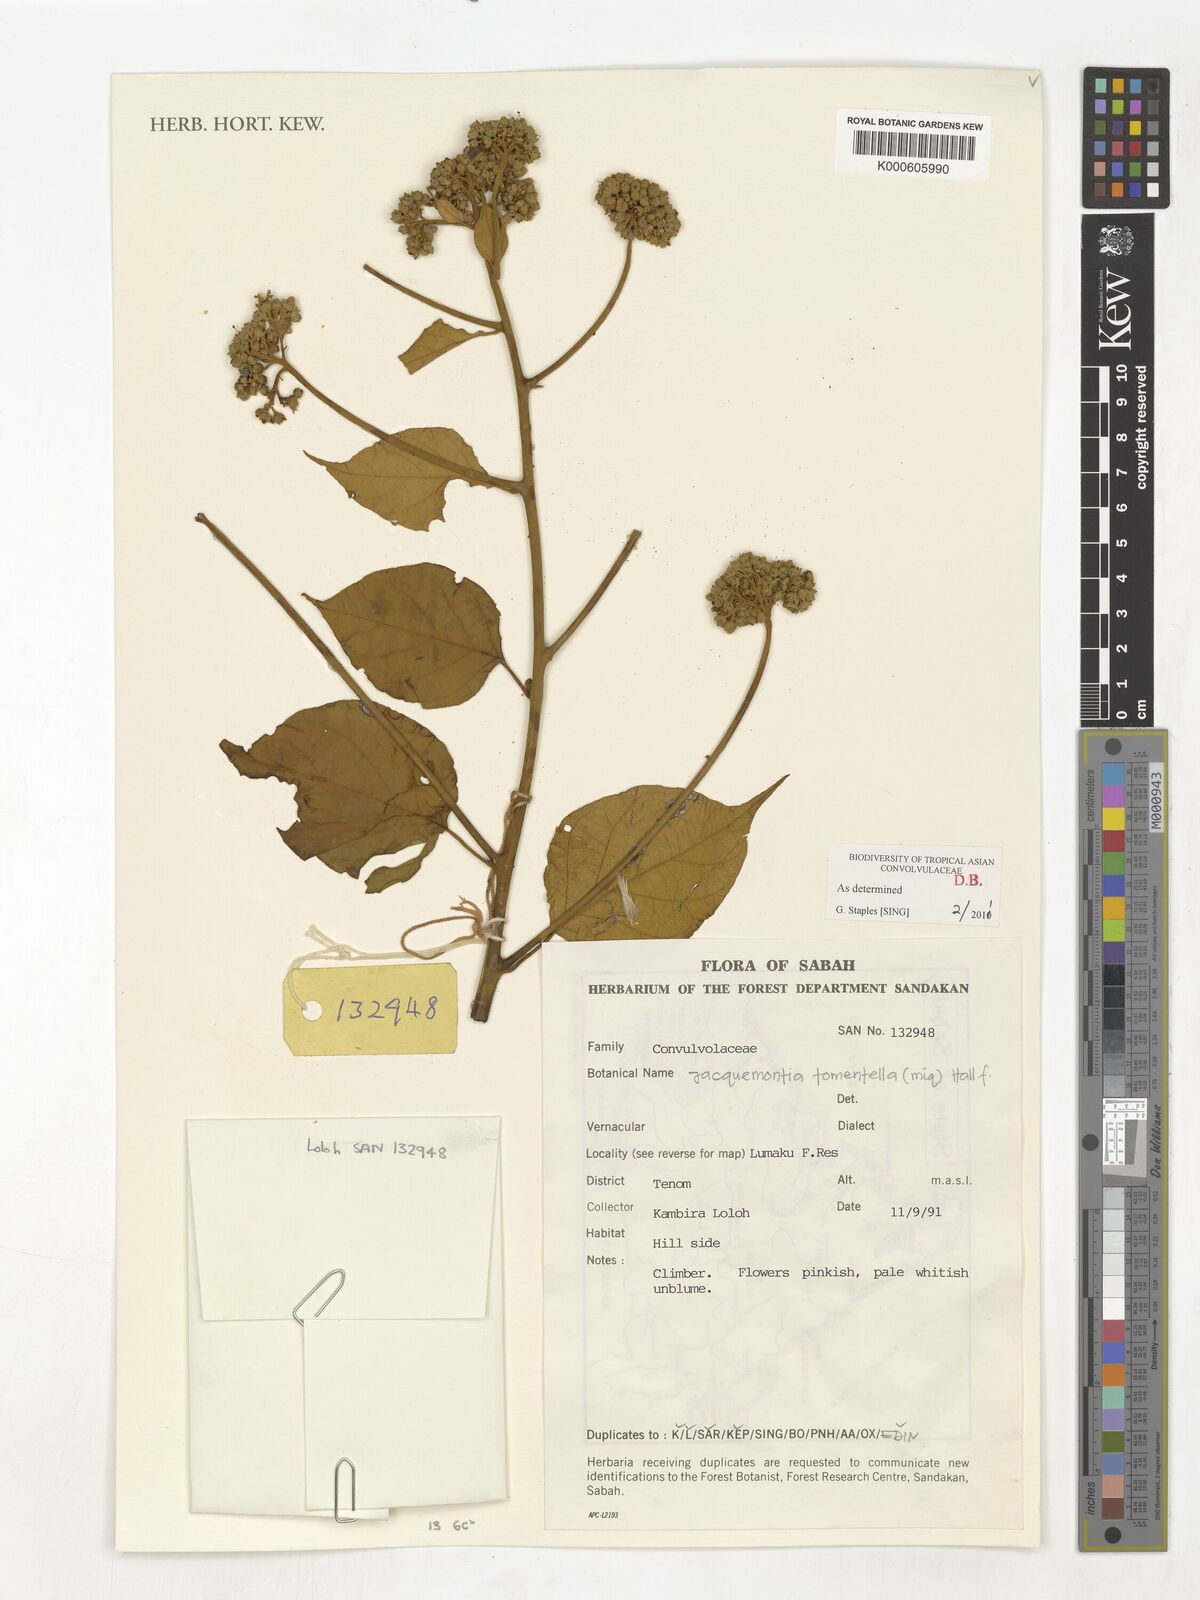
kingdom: Plantae
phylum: Tracheophyta
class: Magnoliopsida
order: Solanales
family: Convolvulaceae
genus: Jacquemontia
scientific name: Jacquemontia tomentella
